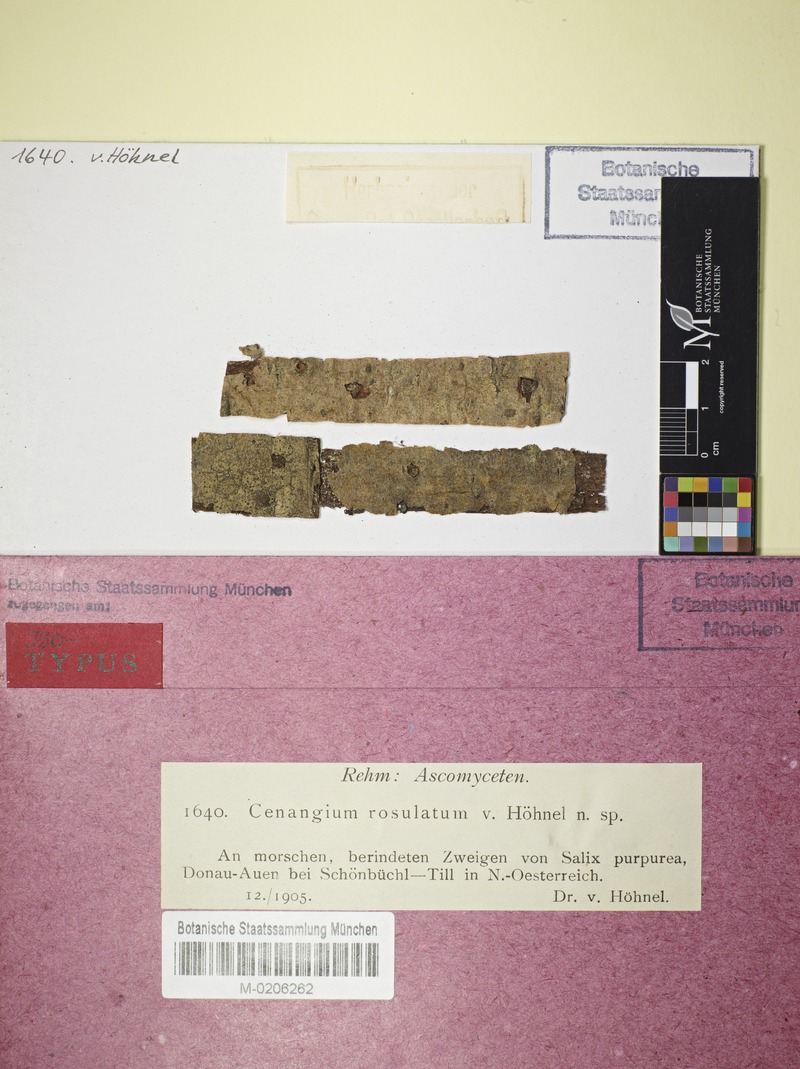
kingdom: Fungi
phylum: Ascomycota
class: Leotiomycetes
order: Helotiales
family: Cenangiaceae
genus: Cenangium
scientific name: Cenangium rosulatum
